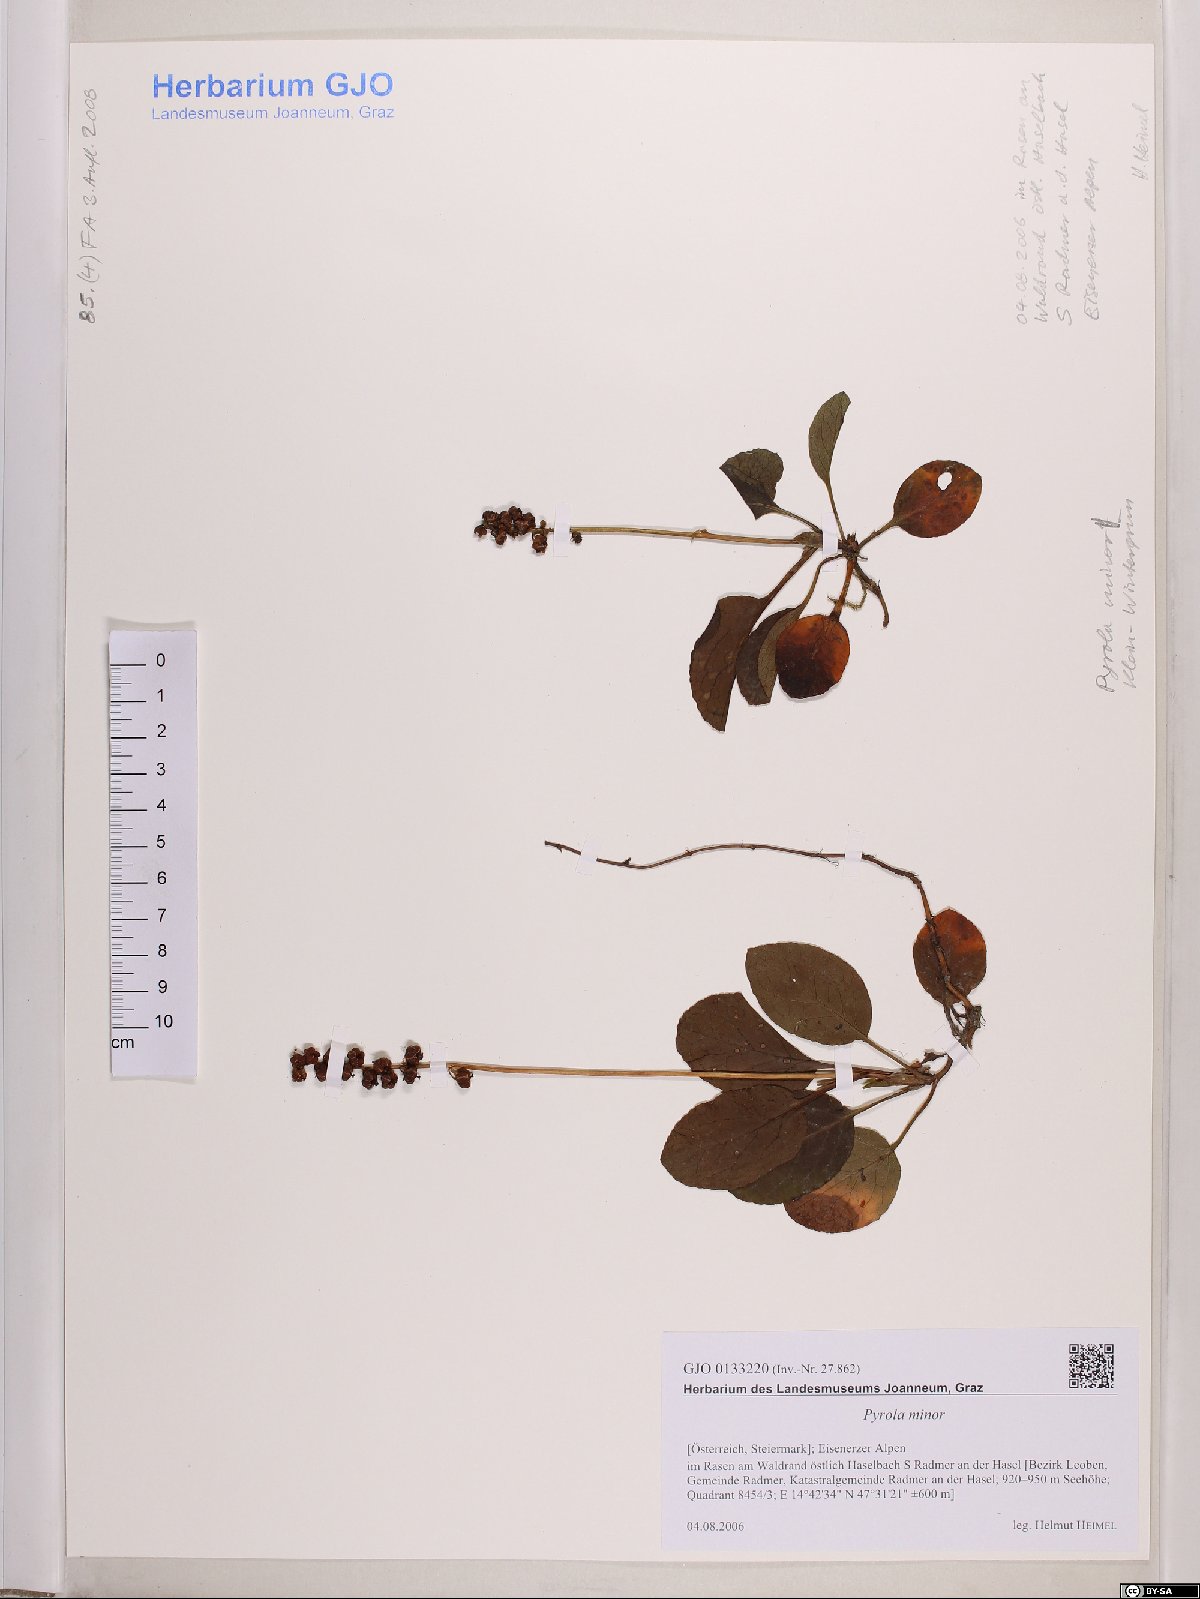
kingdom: Plantae
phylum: Tracheophyta
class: Magnoliopsida
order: Ericales
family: Ericaceae
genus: Pyrola
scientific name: Pyrola minor
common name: Common wintergreen
